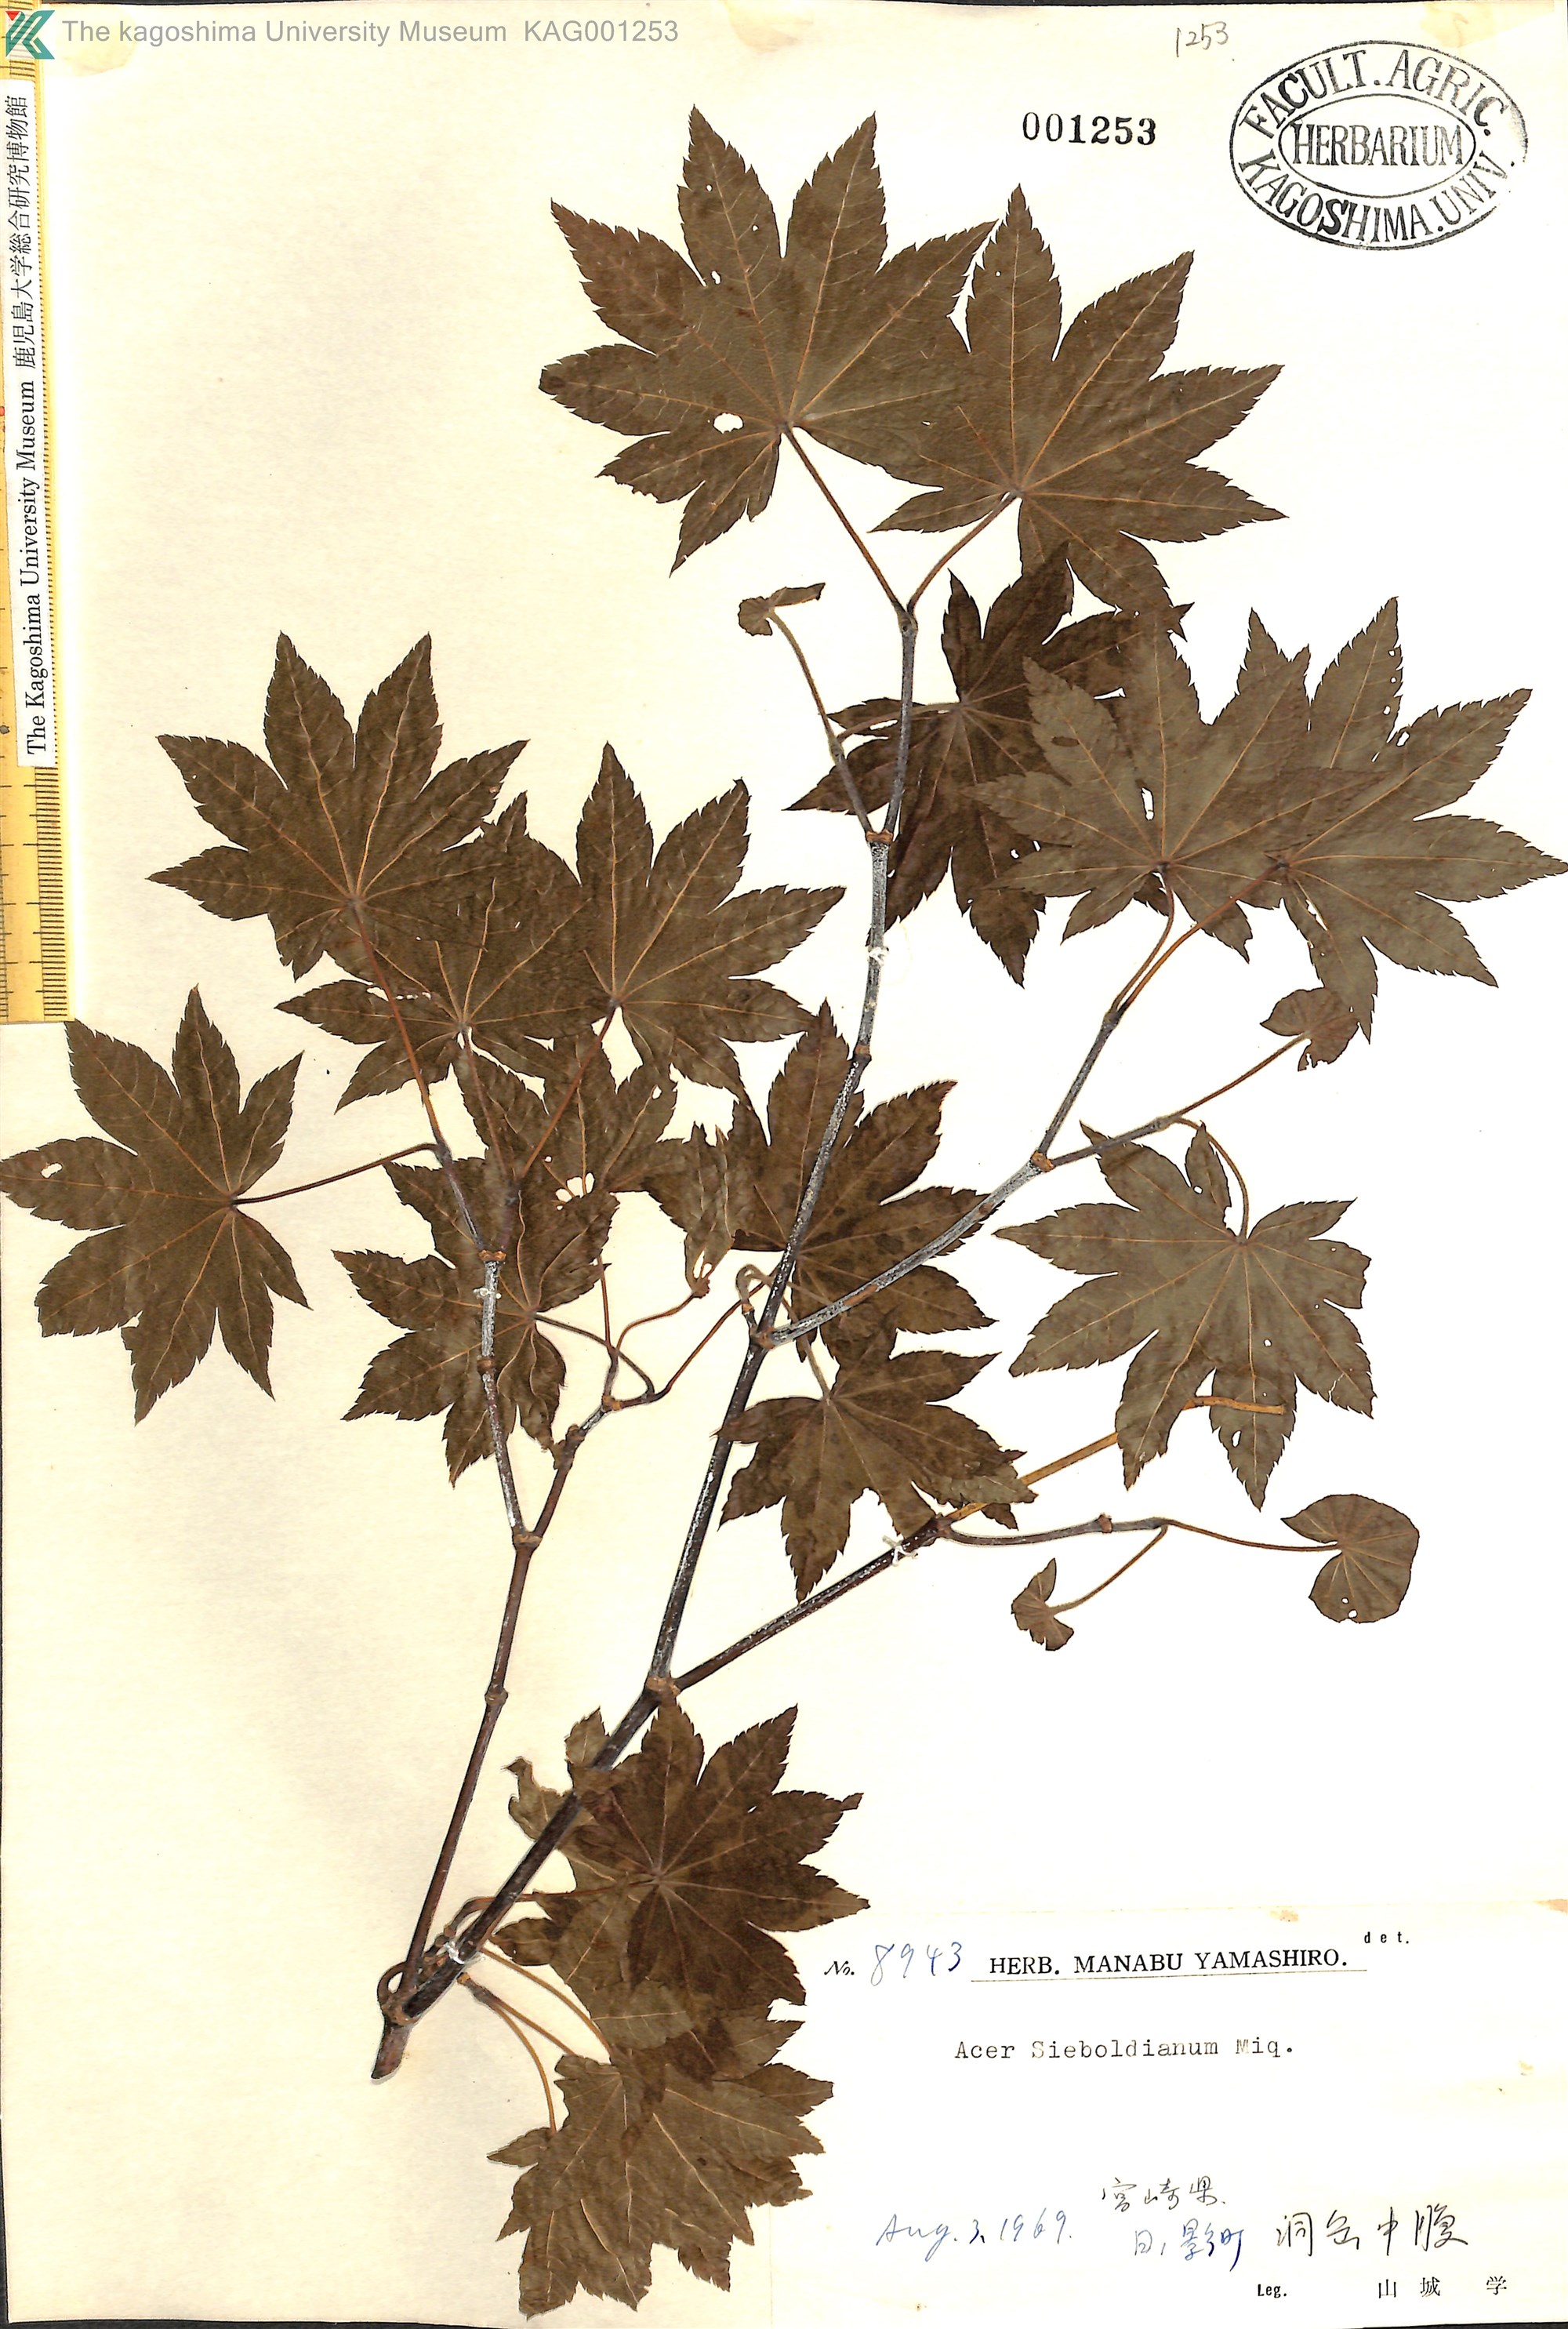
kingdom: Plantae
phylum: Tracheophyta
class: Magnoliopsida
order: Sapindales
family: Sapindaceae
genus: Acer
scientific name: Acer sieboldianum
